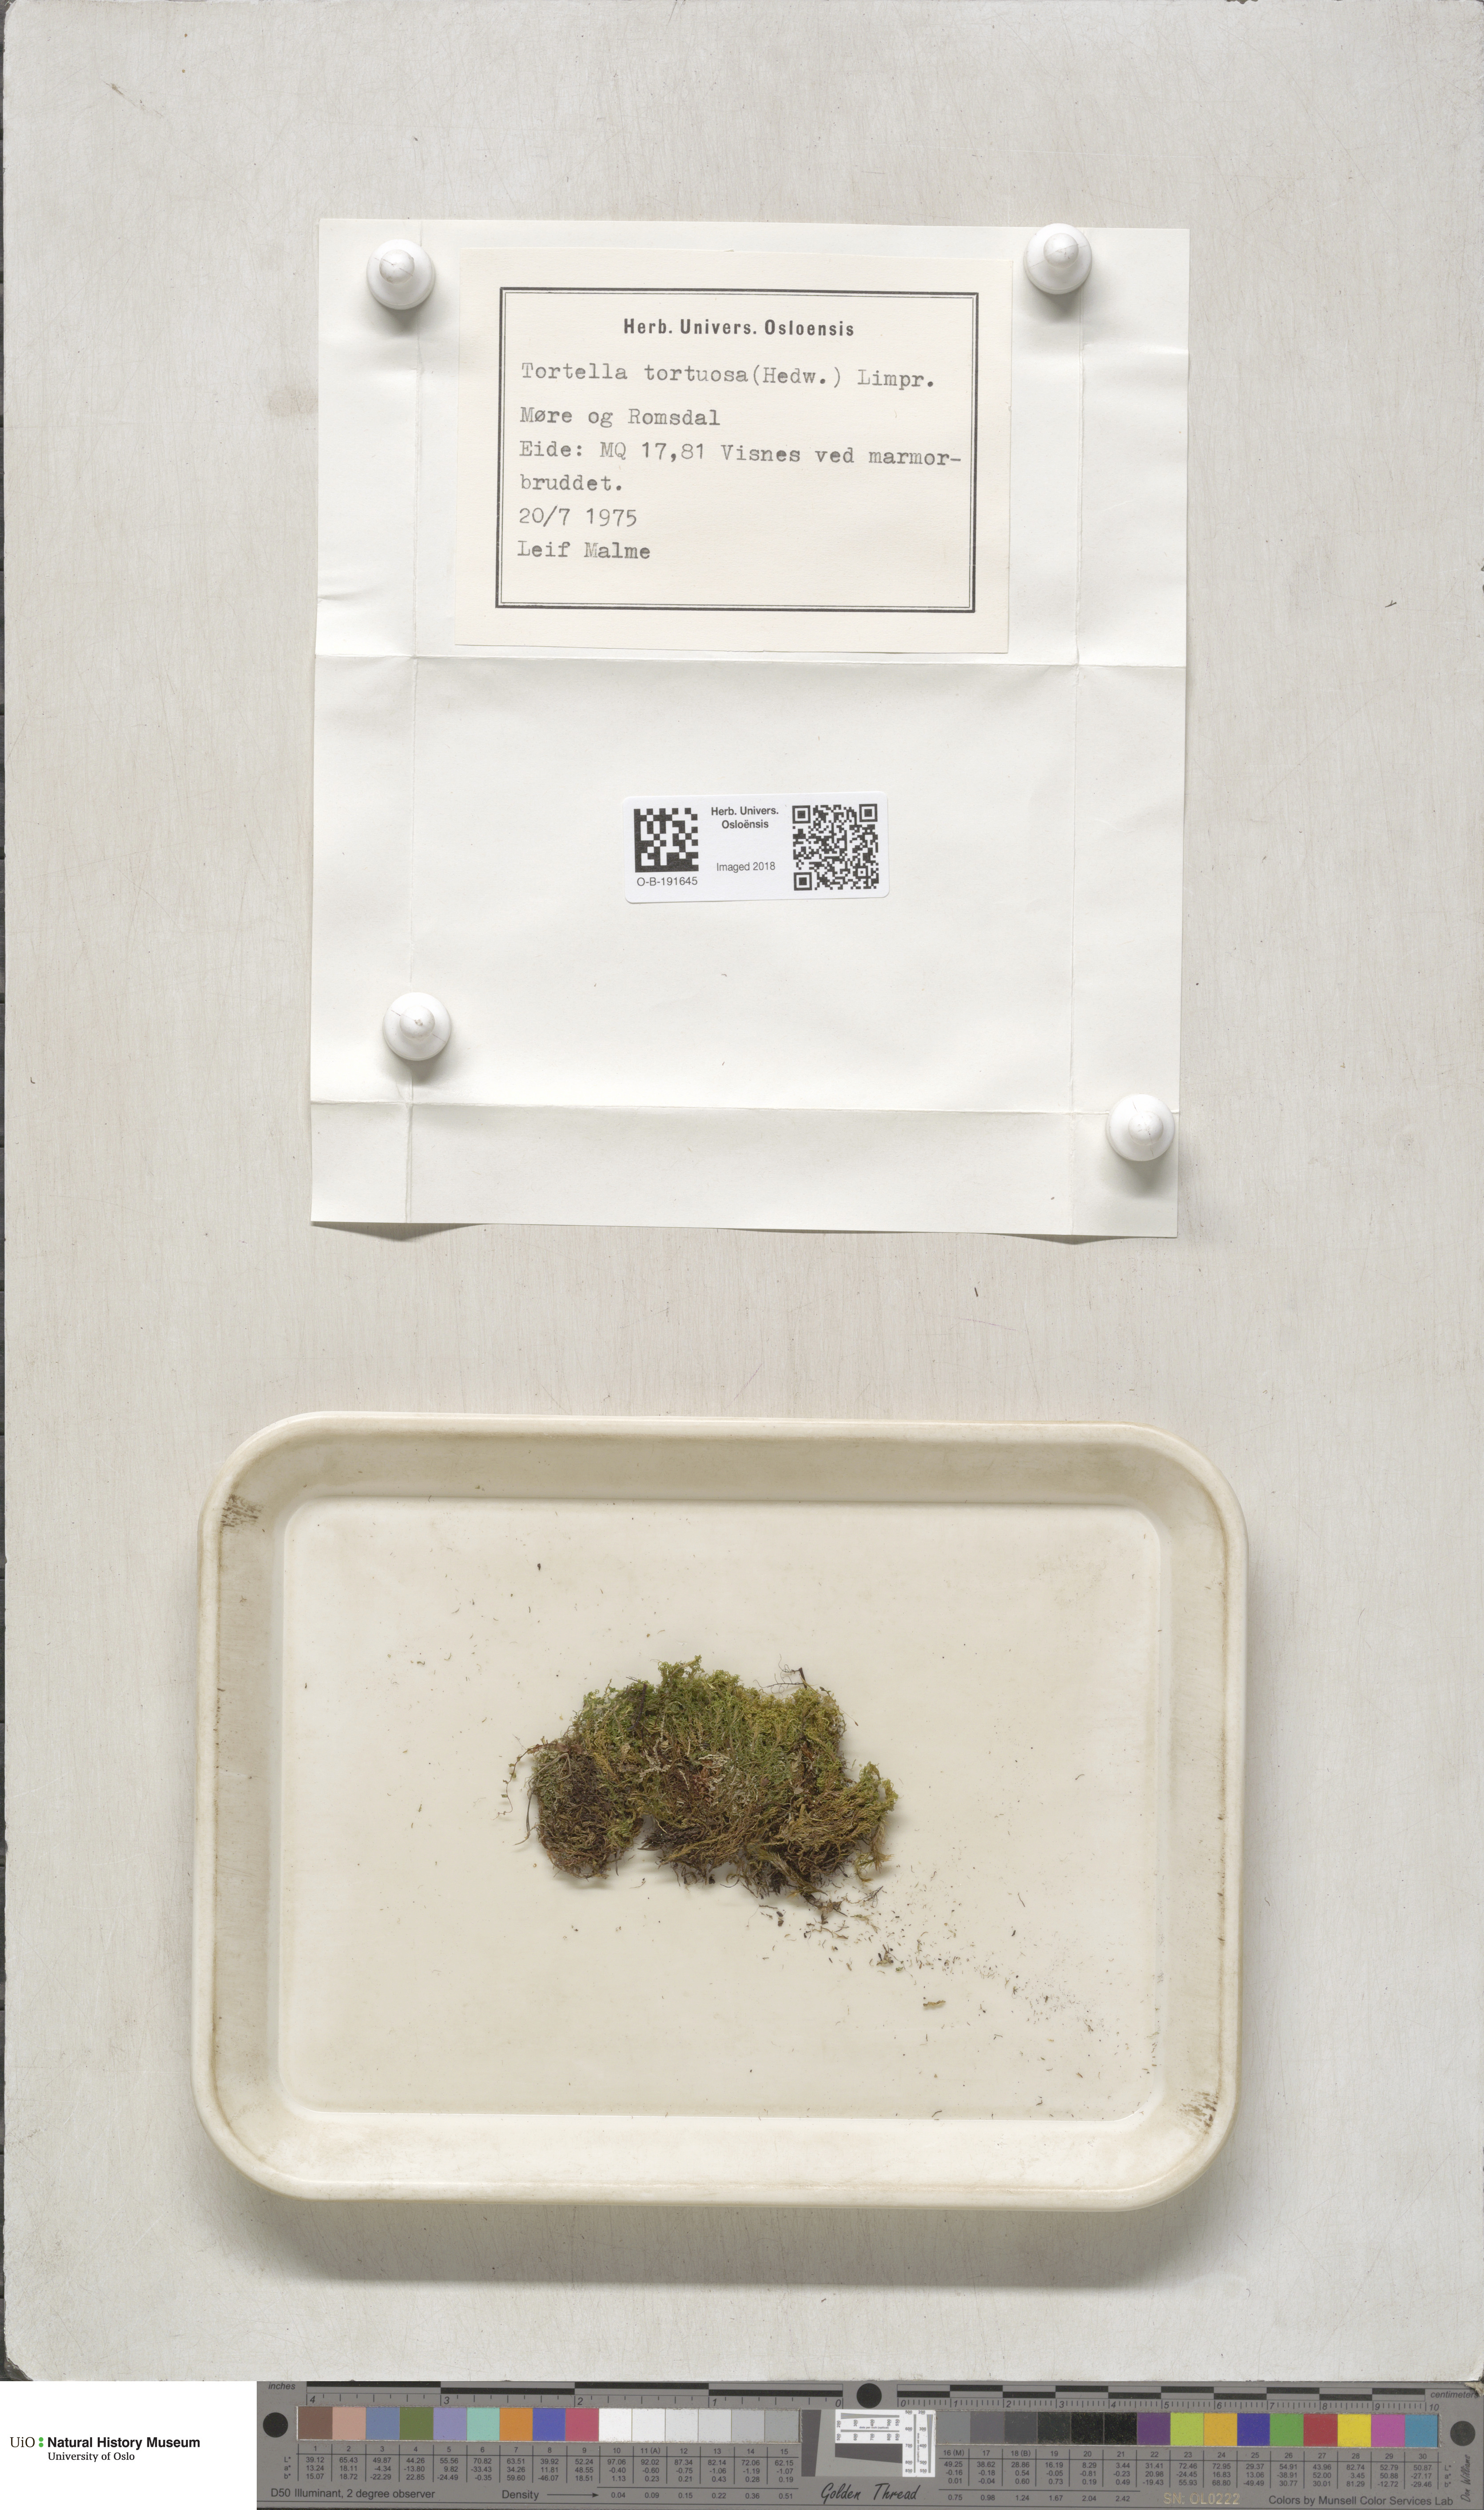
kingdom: Plantae
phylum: Bryophyta
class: Bryopsida
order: Pottiales
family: Pottiaceae
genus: Tortella
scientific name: Tortella tortuosa
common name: Frizzled crisp moss
